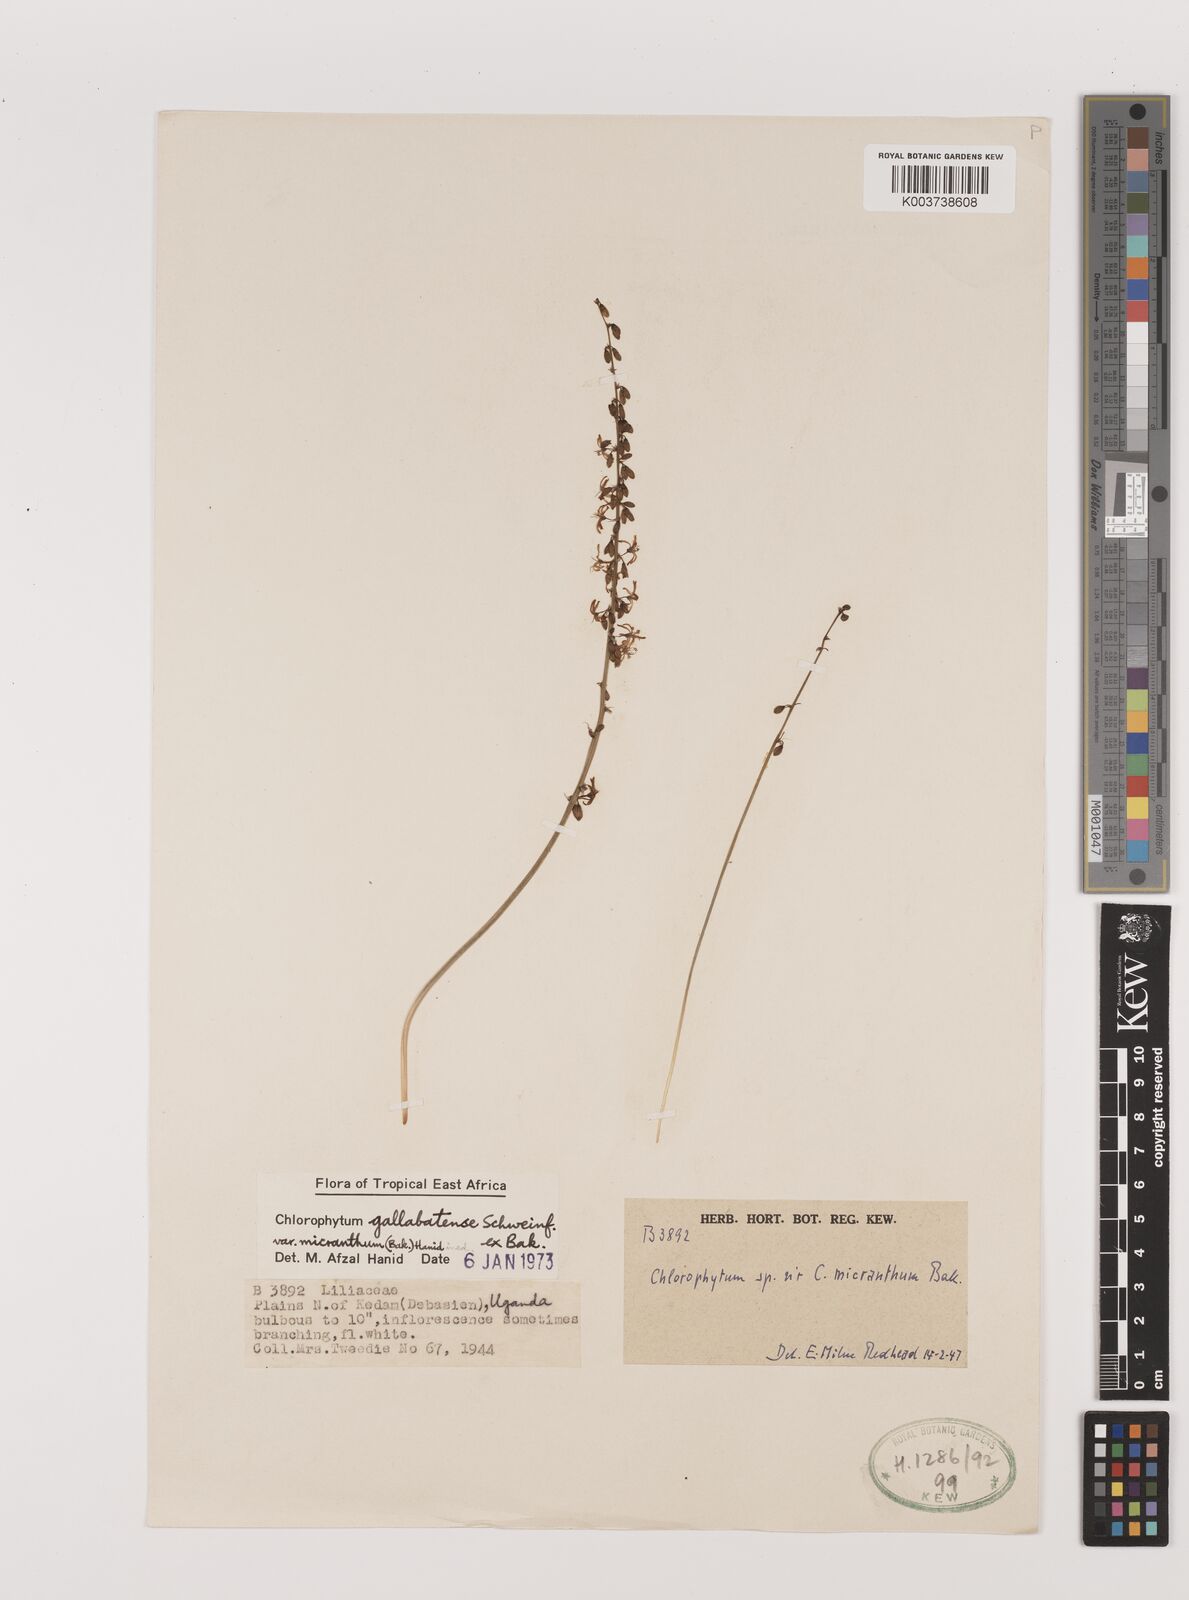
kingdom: Plantae
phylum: Tracheophyta
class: Liliopsida
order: Asparagales
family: Asparagaceae
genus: Chlorophytum
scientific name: Chlorophytum gallabatense
